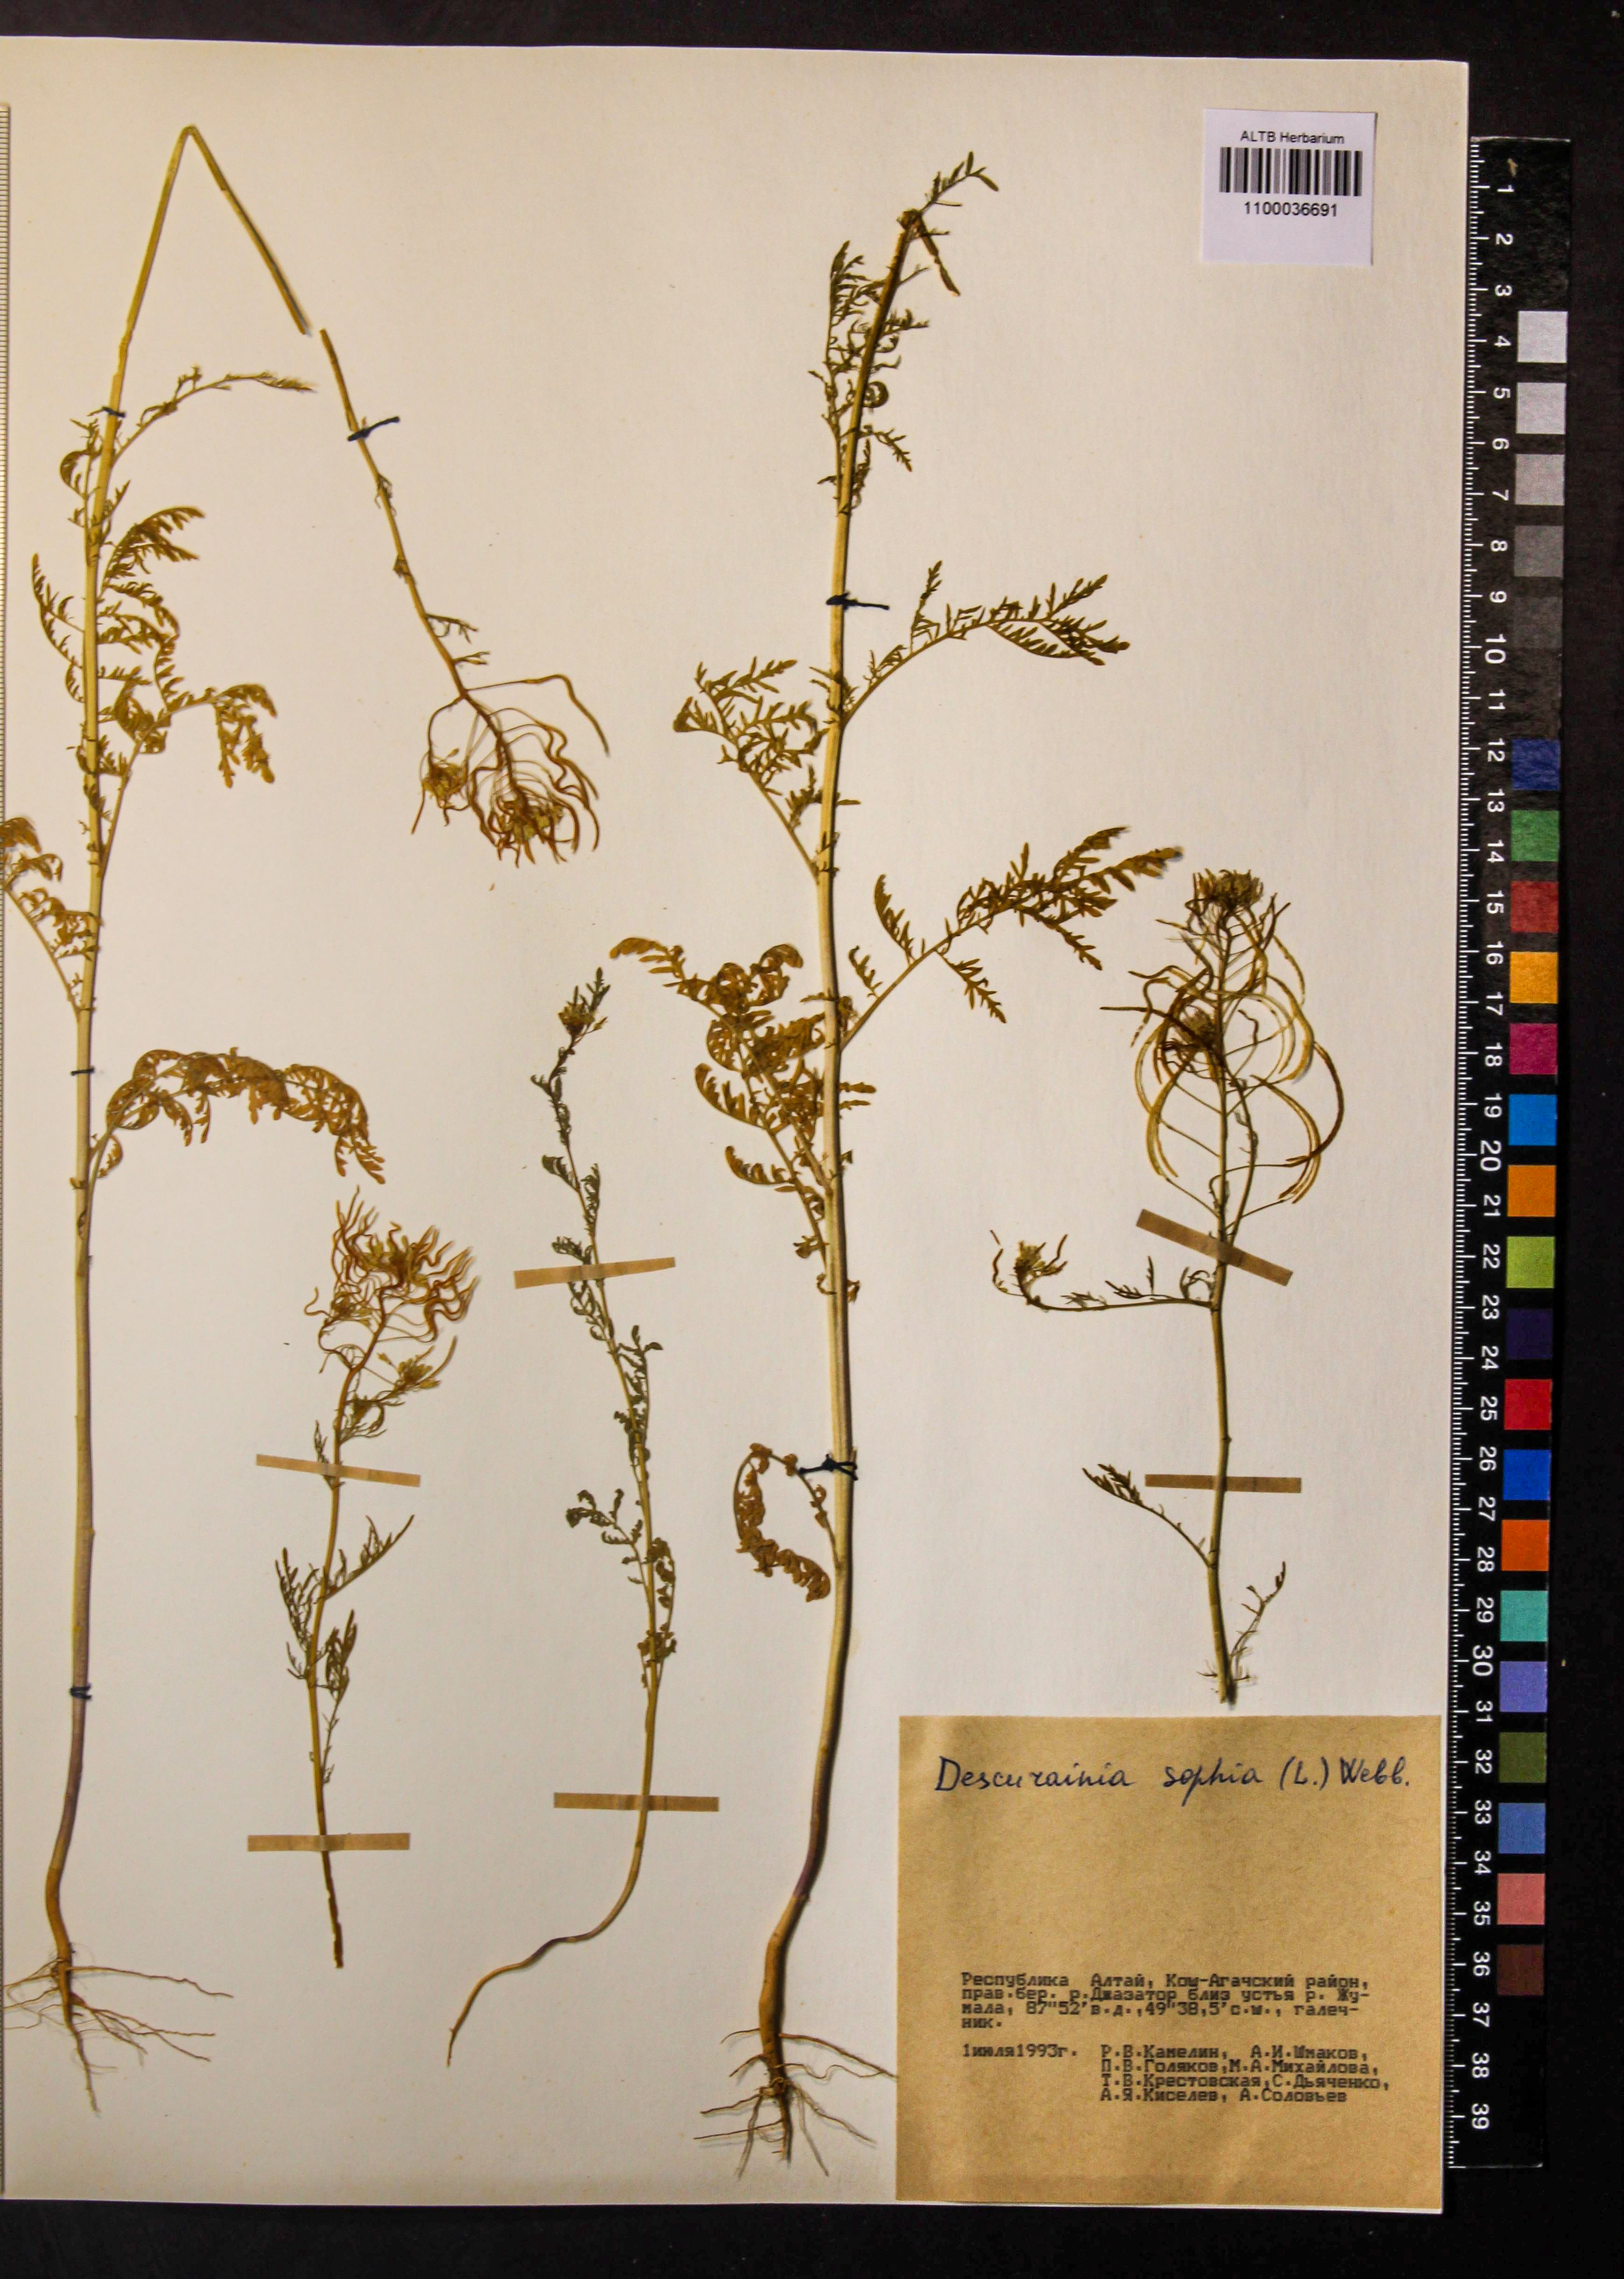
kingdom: Plantae
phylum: Tracheophyta
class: Magnoliopsida
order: Brassicales
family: Brassicaceae
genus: Descurainia
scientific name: Descurainia sophia
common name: Flixweed
